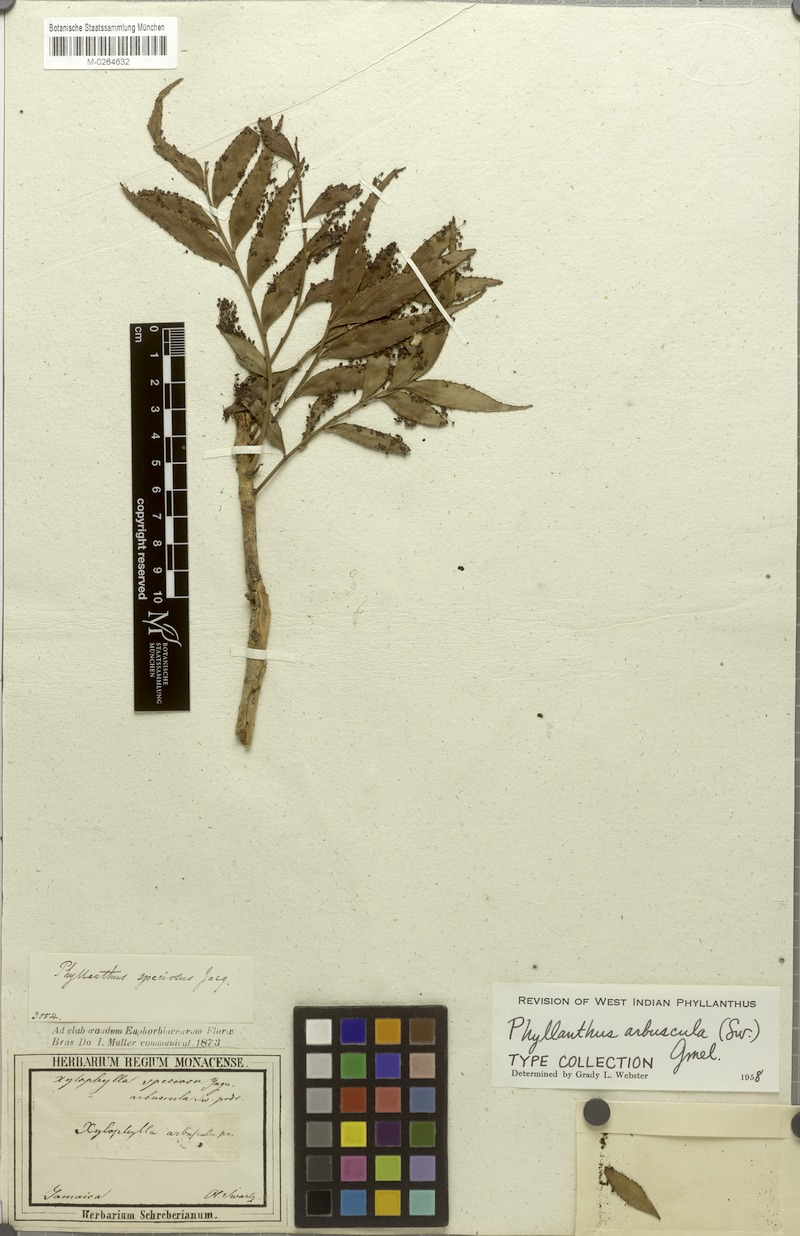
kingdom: Plantae
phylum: Tracheophyta
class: Magnoliopsida
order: Malpighiales
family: Phyllanthaceae
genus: Phyllanthus
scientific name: Phyllanthus arbuscula
